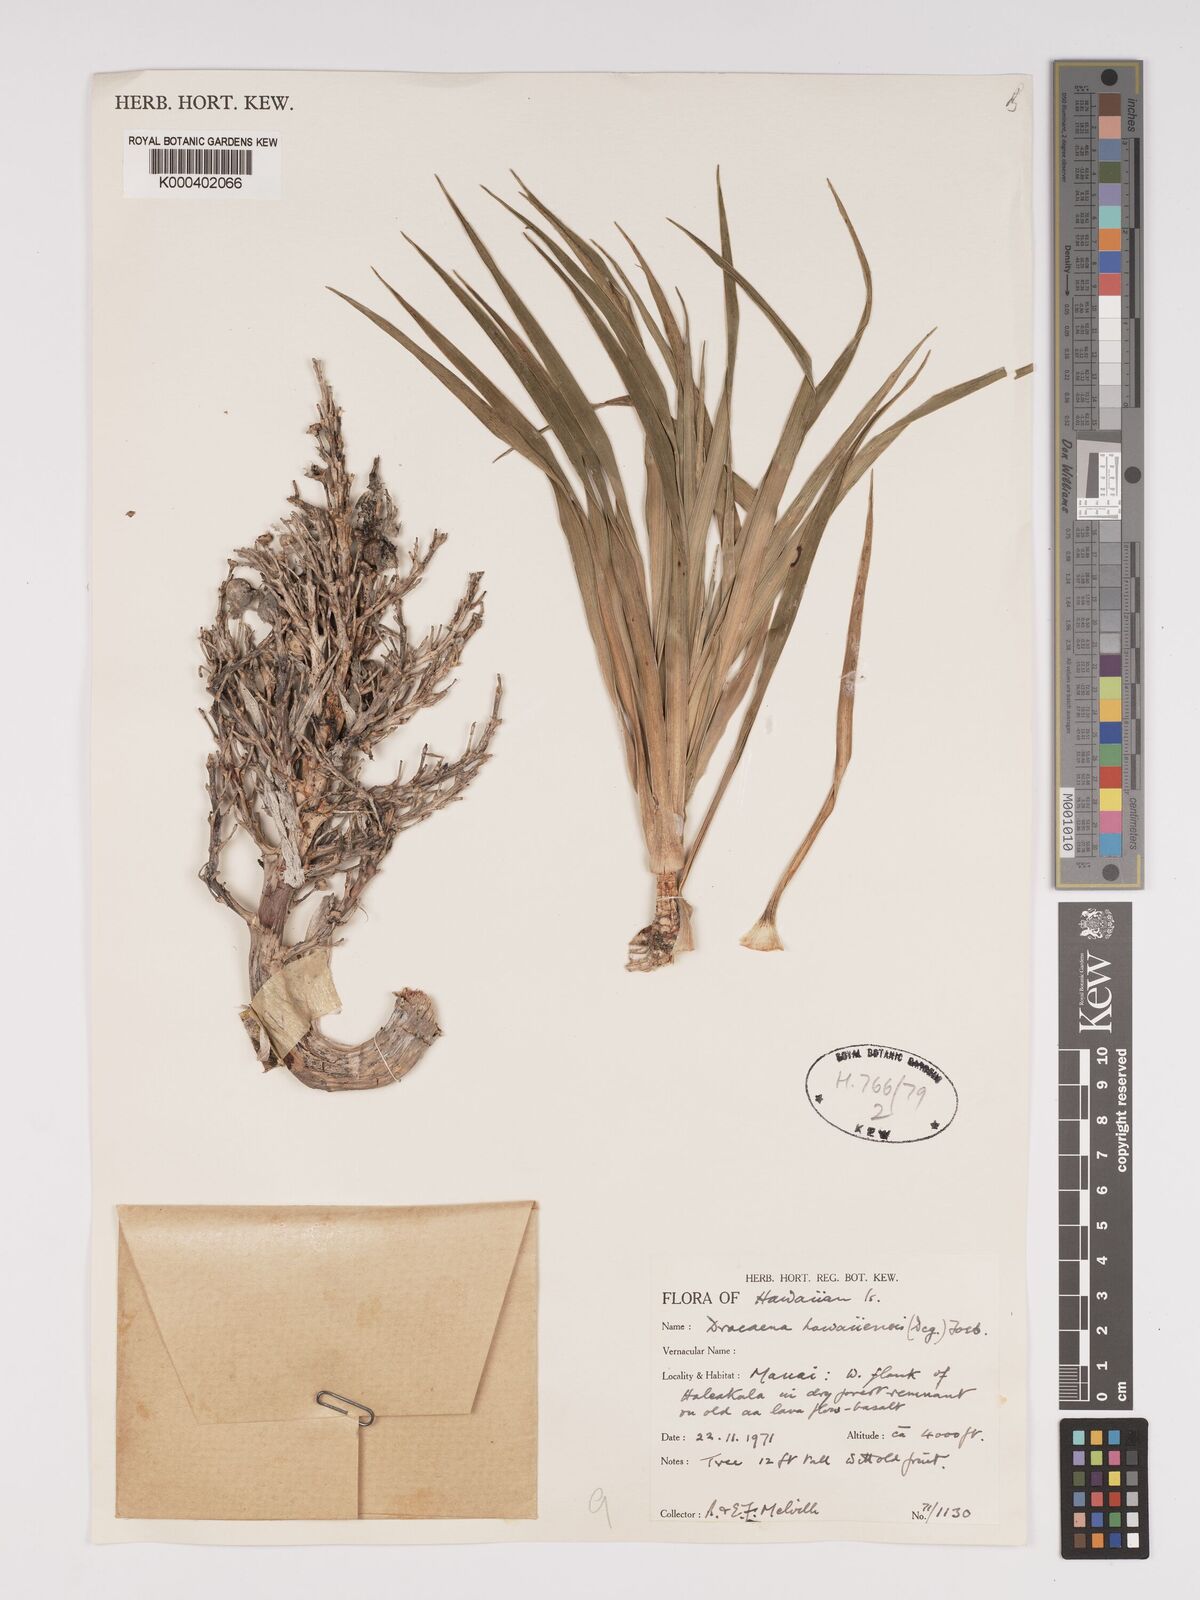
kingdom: Plantae
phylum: Tracheophyta
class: Liliopsida
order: Asparagales
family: Asparagaceae
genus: Dracaena
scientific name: Dracaena fernaldii
